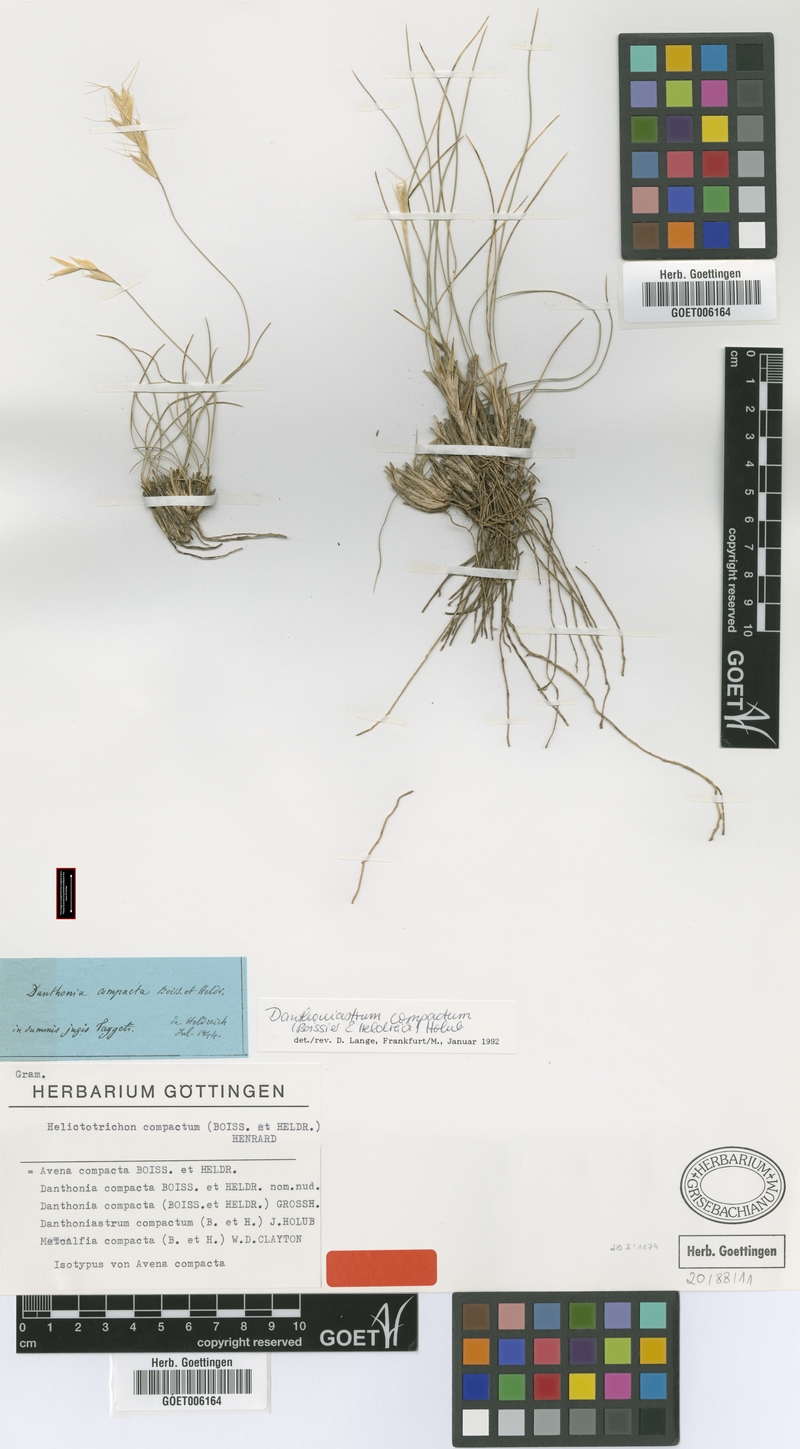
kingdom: Plantae
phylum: Tracheophyta
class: Liliopsida
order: Poales
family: Poaceae
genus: Danthoniastrum
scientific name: Danthoniastrum compactum
